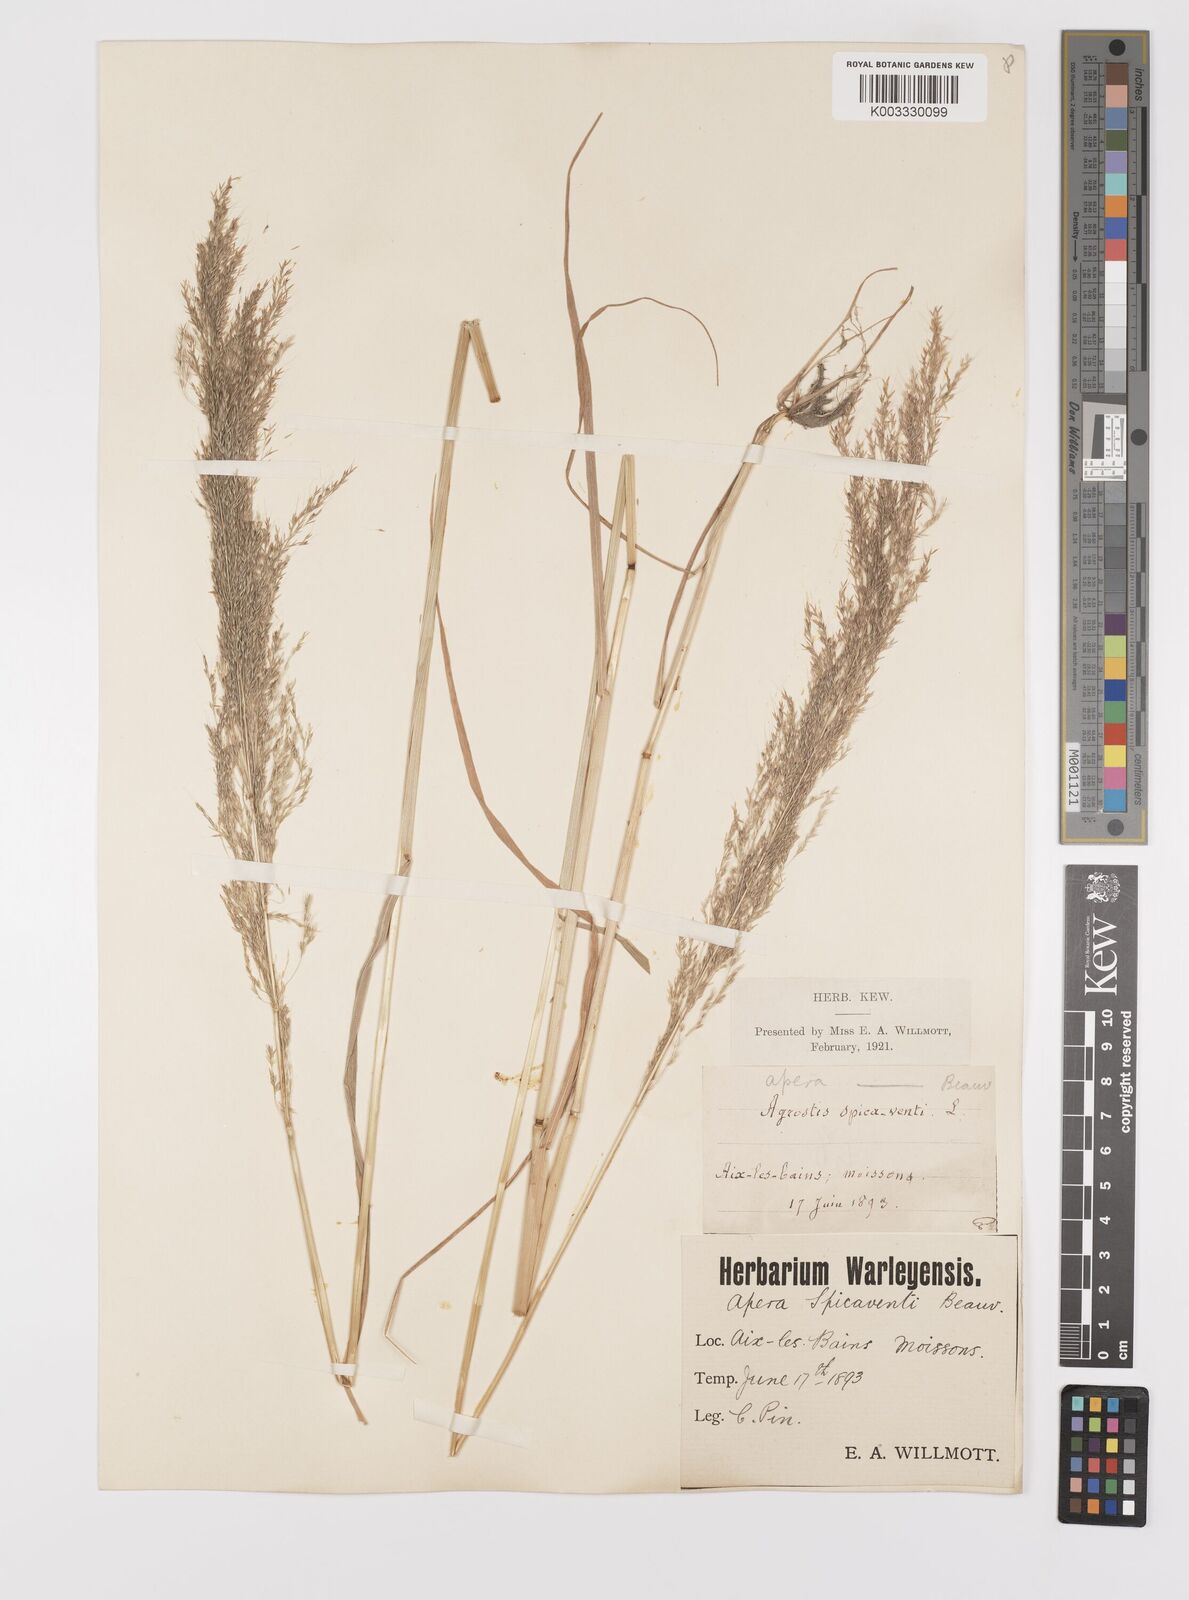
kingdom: Plantae
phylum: Tracheophyta
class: Liliopsida
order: Poales
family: Poaceae
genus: Apera
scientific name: Apera spica-venti
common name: Loose silky-bent
